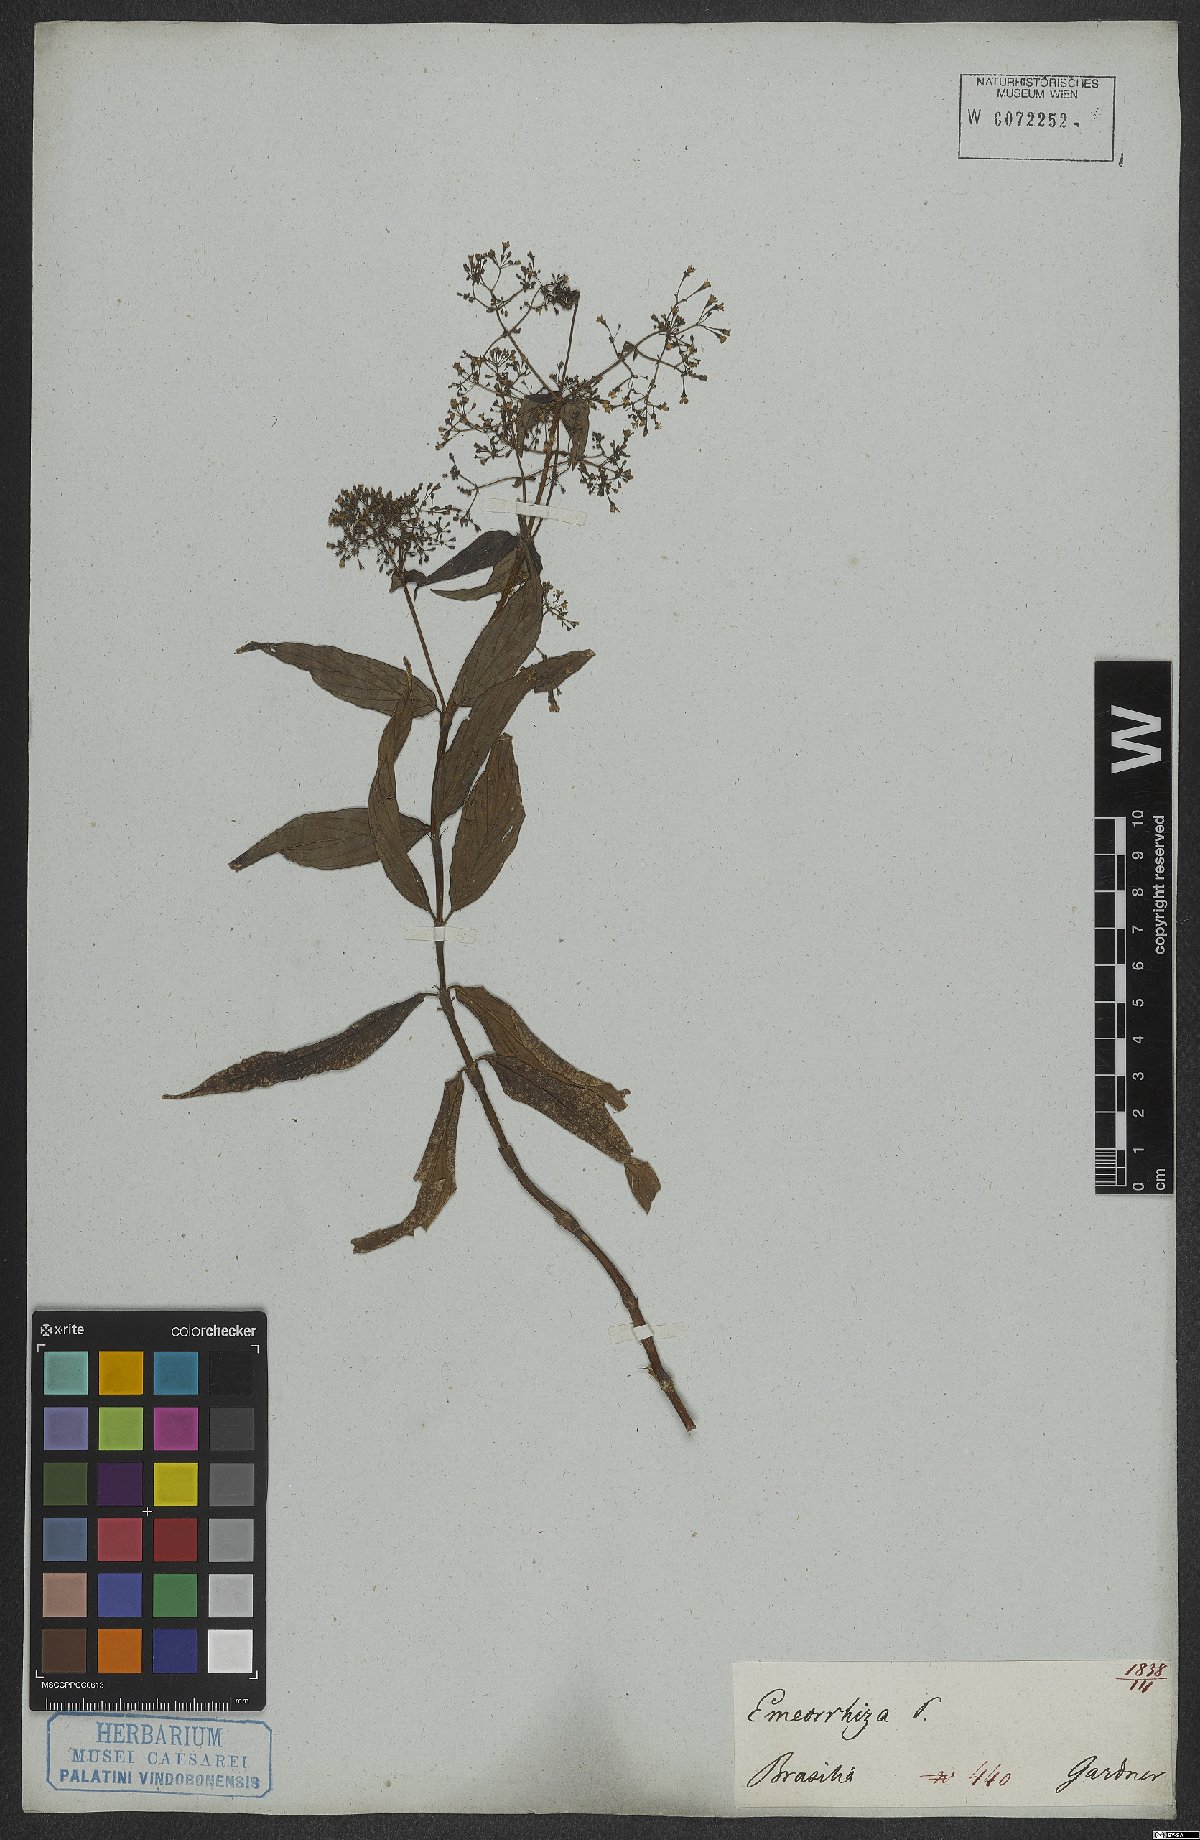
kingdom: Plantae
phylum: Tracheophyta
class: Magnoliopsida
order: Gentianales
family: Rubiaceae
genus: Emmeorhiza
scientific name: Emmeorhiza
